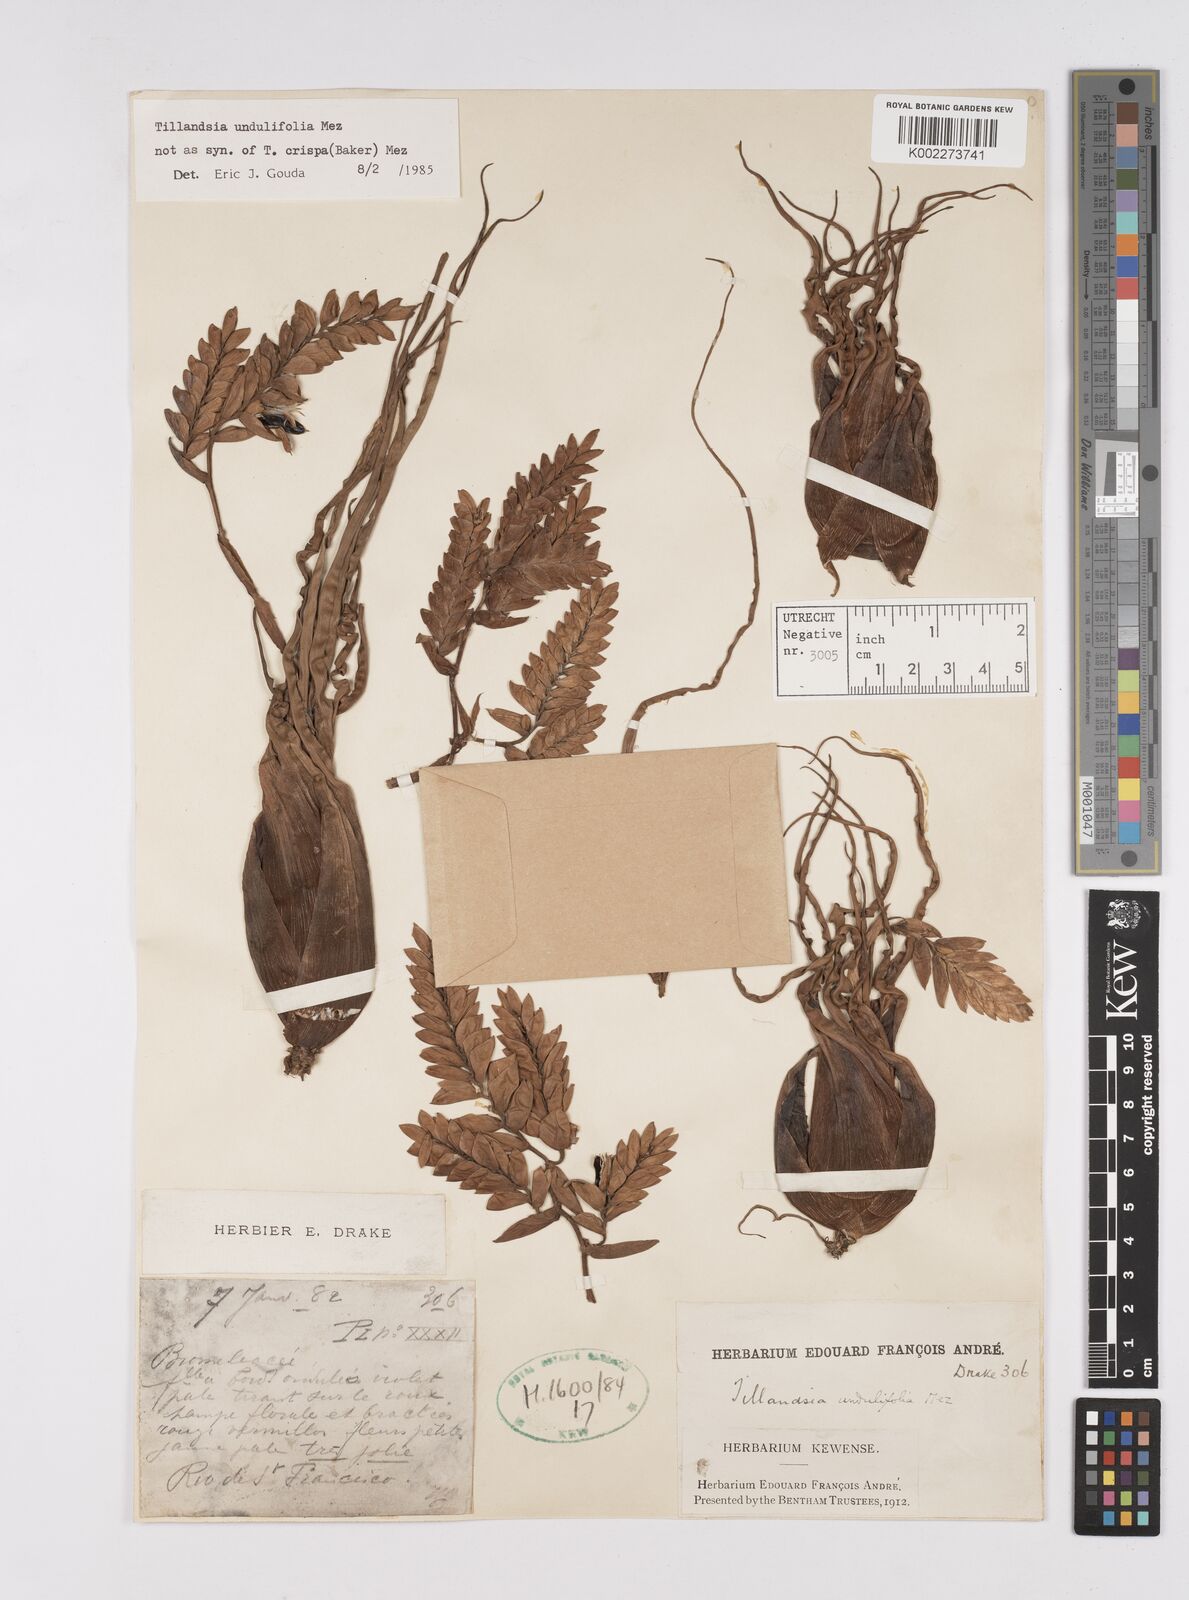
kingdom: Plantae
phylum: Tracheophyta
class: Liliopsida
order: Poales
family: Bromeliaceae
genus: Racinaea
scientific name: Racinaea crispa
